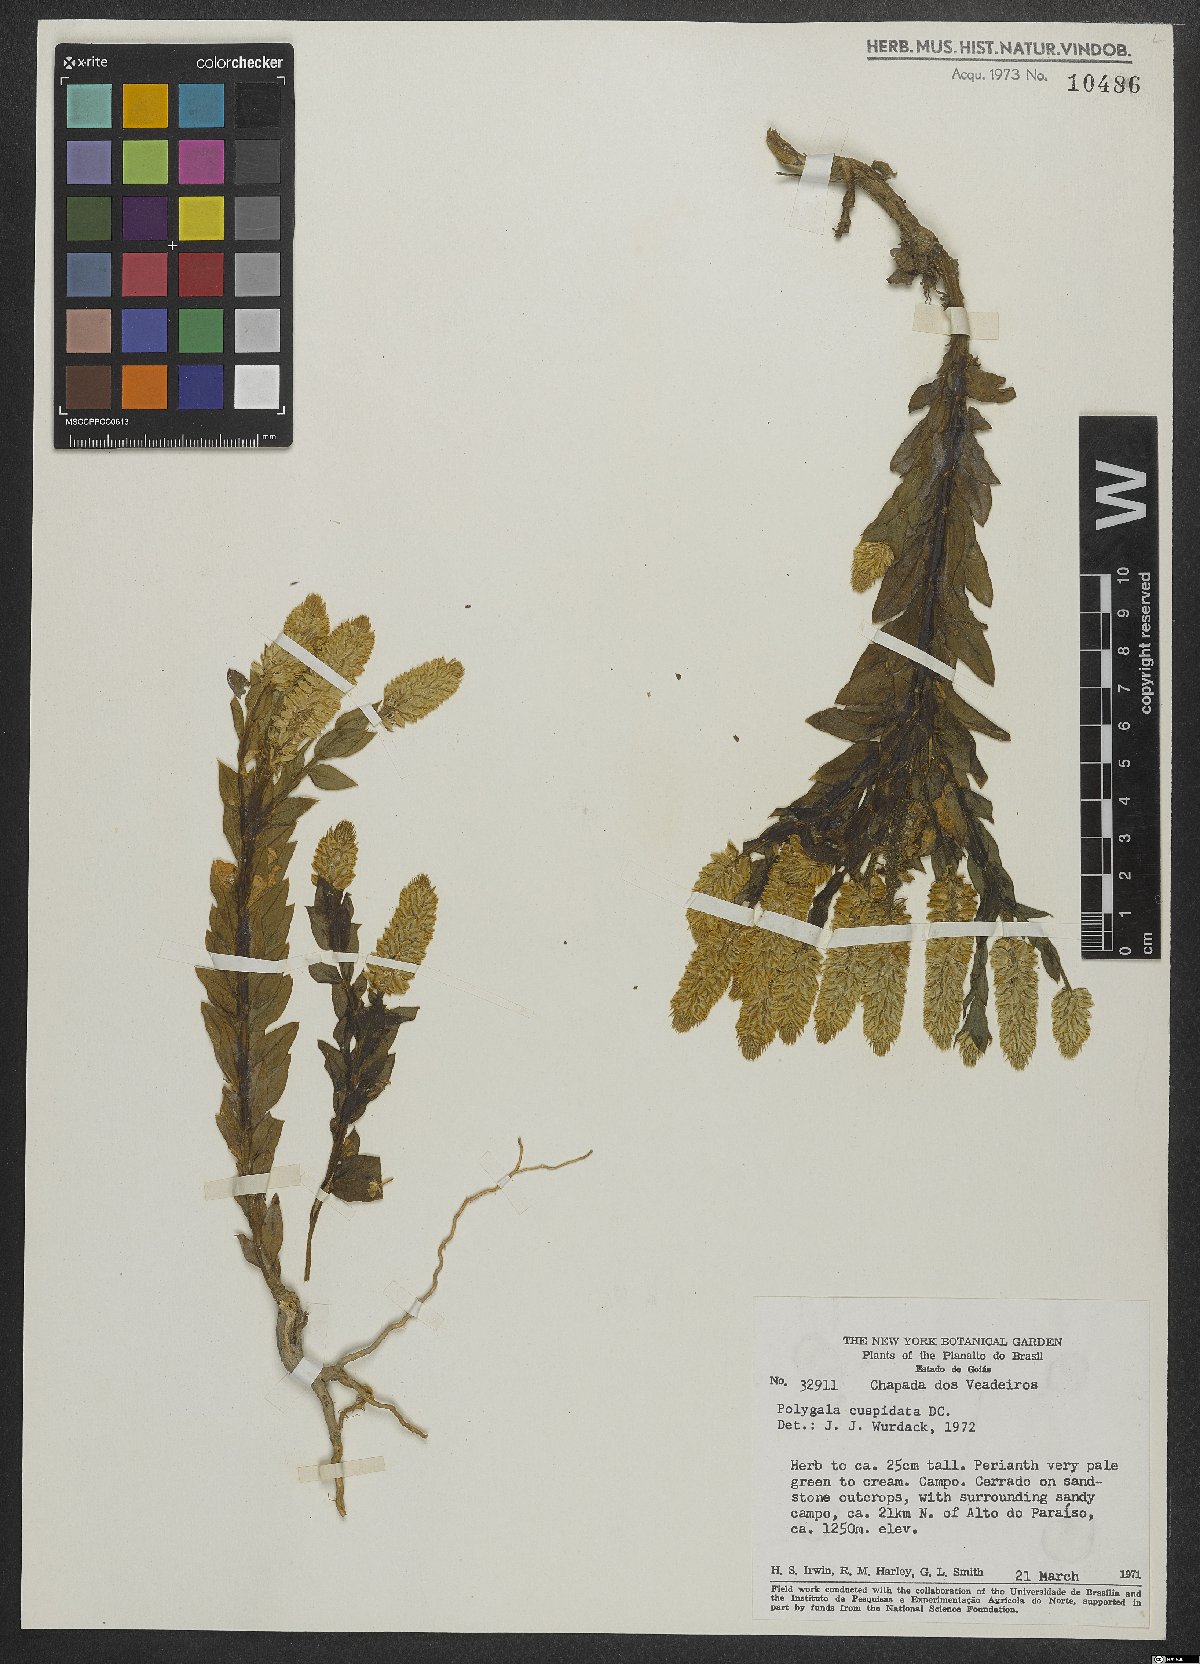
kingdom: Plantae
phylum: Tracheophyta
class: Magnoliopsida
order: Fabales
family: Polygalaceae
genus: Polygala
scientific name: Polygala cuspidata
